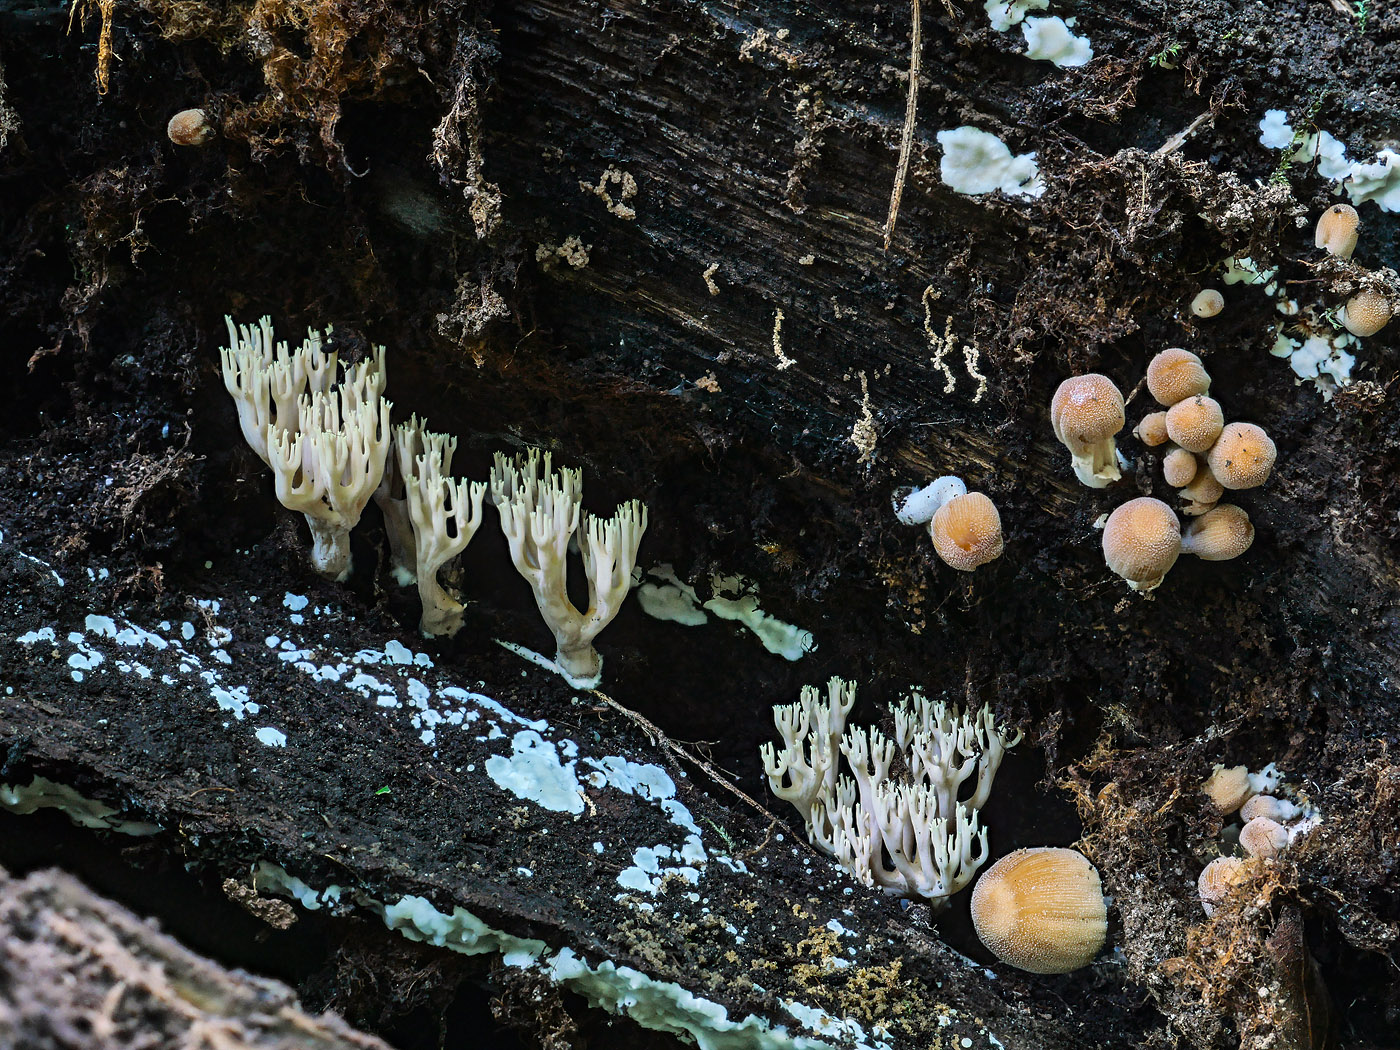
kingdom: Fungi
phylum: Basidiomycota
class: Agaricomycetes
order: Gomphales
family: Gomphaceae
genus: Ramaria
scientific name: Ramaria stricta
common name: rank koralsvamp
